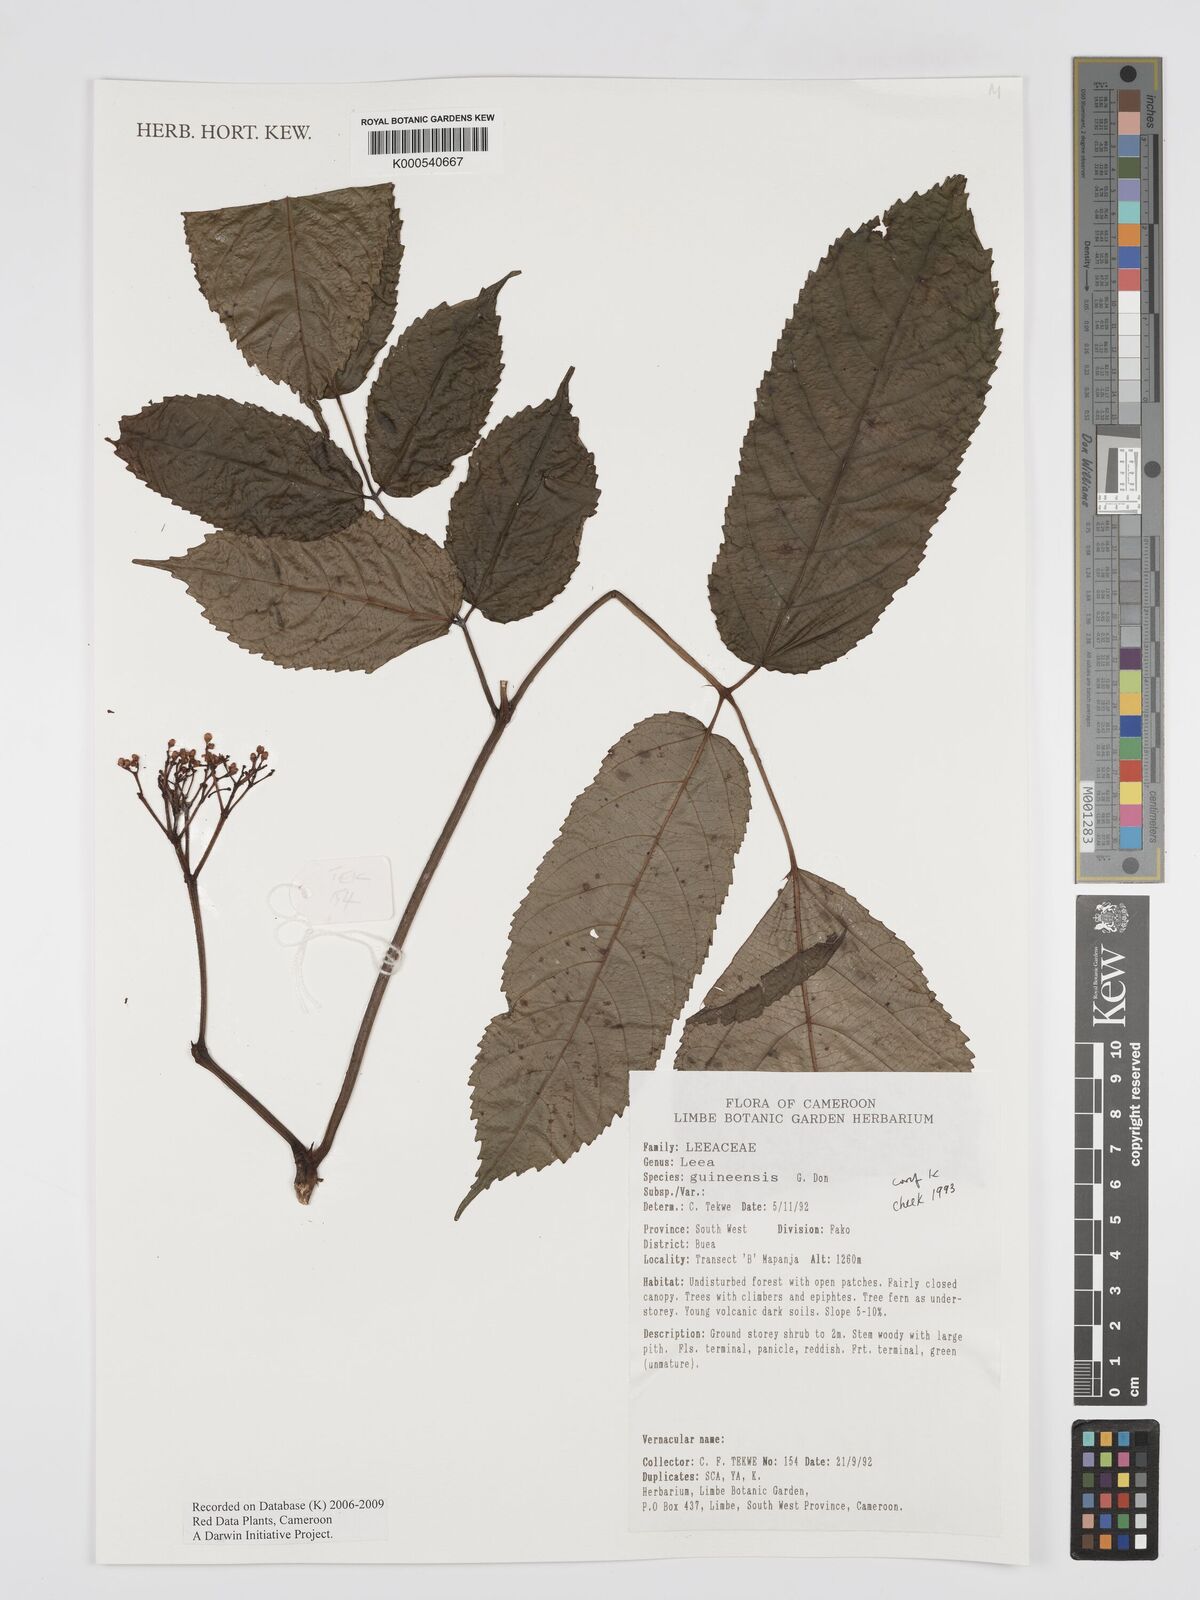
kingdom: Plantae
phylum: Tracheophyta
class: Magnoliopsida
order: Vitales
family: Vitaceae
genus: Leea
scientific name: Leea guineensis
